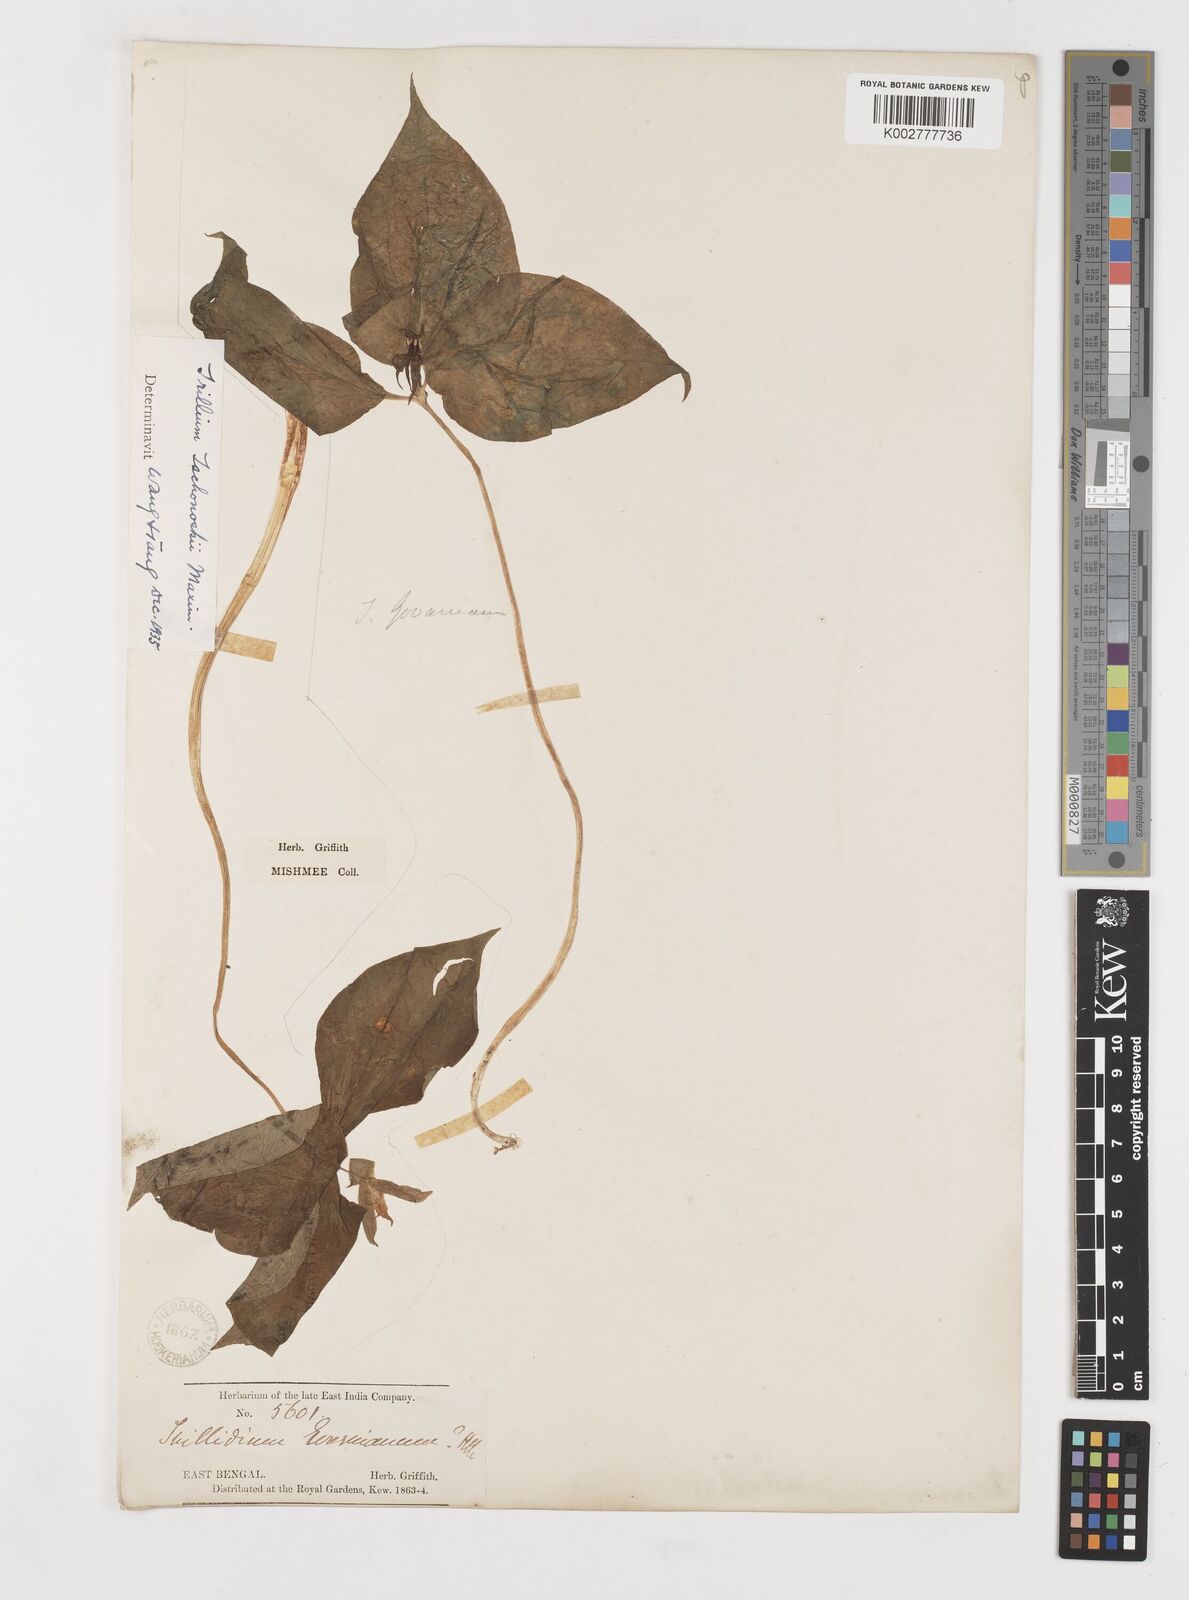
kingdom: Plantae
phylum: Tracheophyta
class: Liliopsida
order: Liliales
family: Melanthiaceae
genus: Trillium
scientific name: Trillium tschonoskii
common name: A pearl on head
